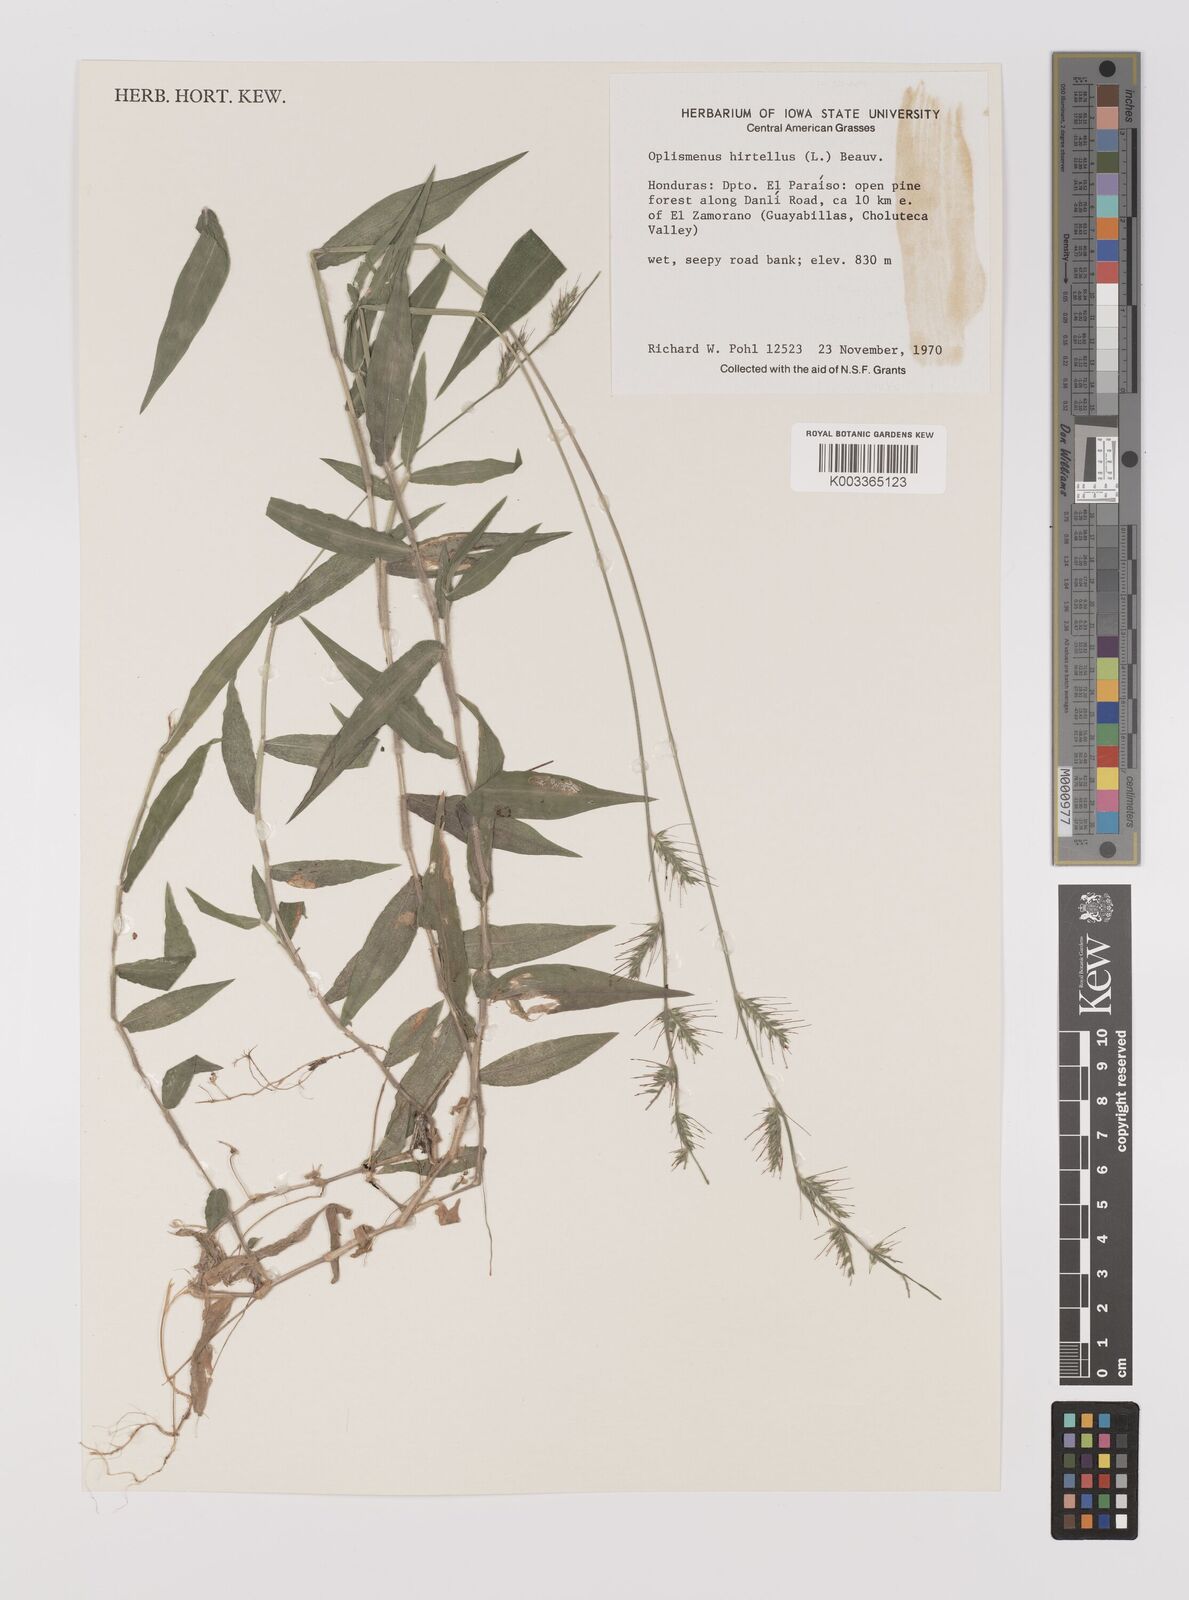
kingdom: Plantae
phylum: Tracheophyta
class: Liliopsida
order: Poales
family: Poaceae
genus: Oplismenus
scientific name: Oplismenus hirtellus
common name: Basketgrass
